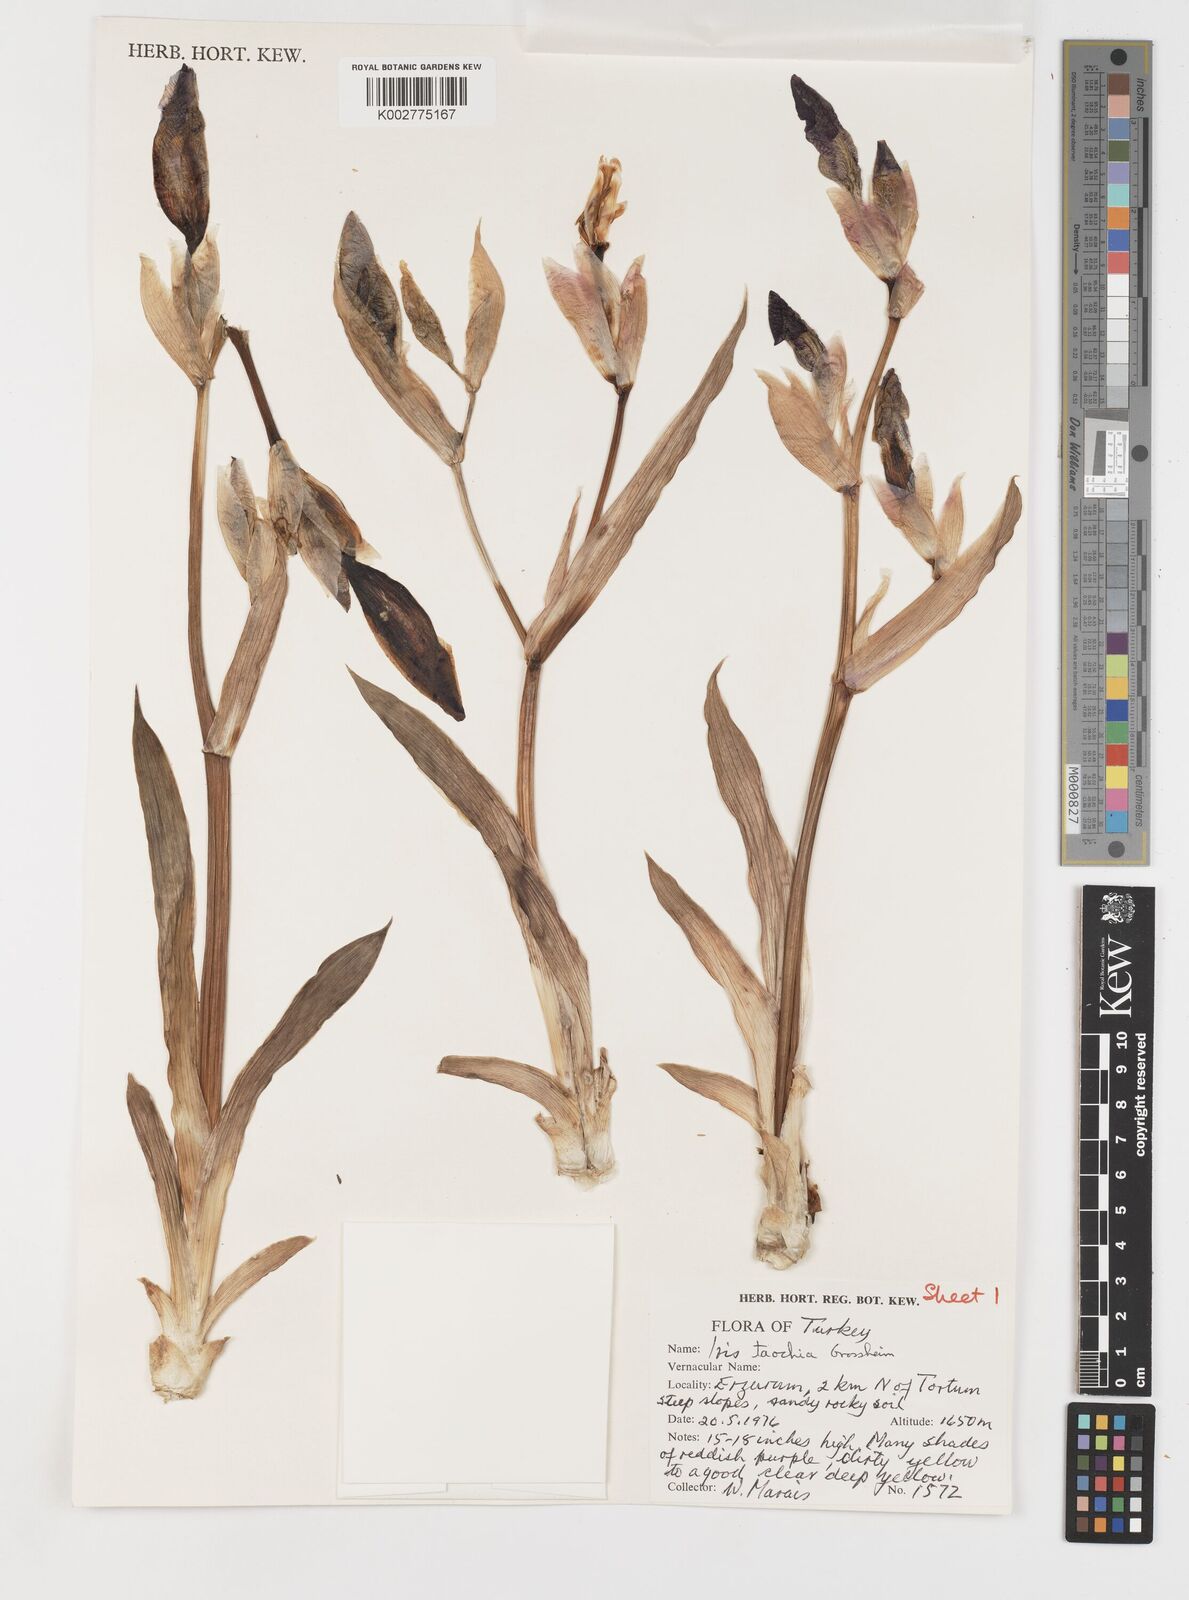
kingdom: Plantae
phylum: Tracheophyta
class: Liliopsida
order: Asparagales
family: Iridaceae
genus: Iris
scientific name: Iris taochia
